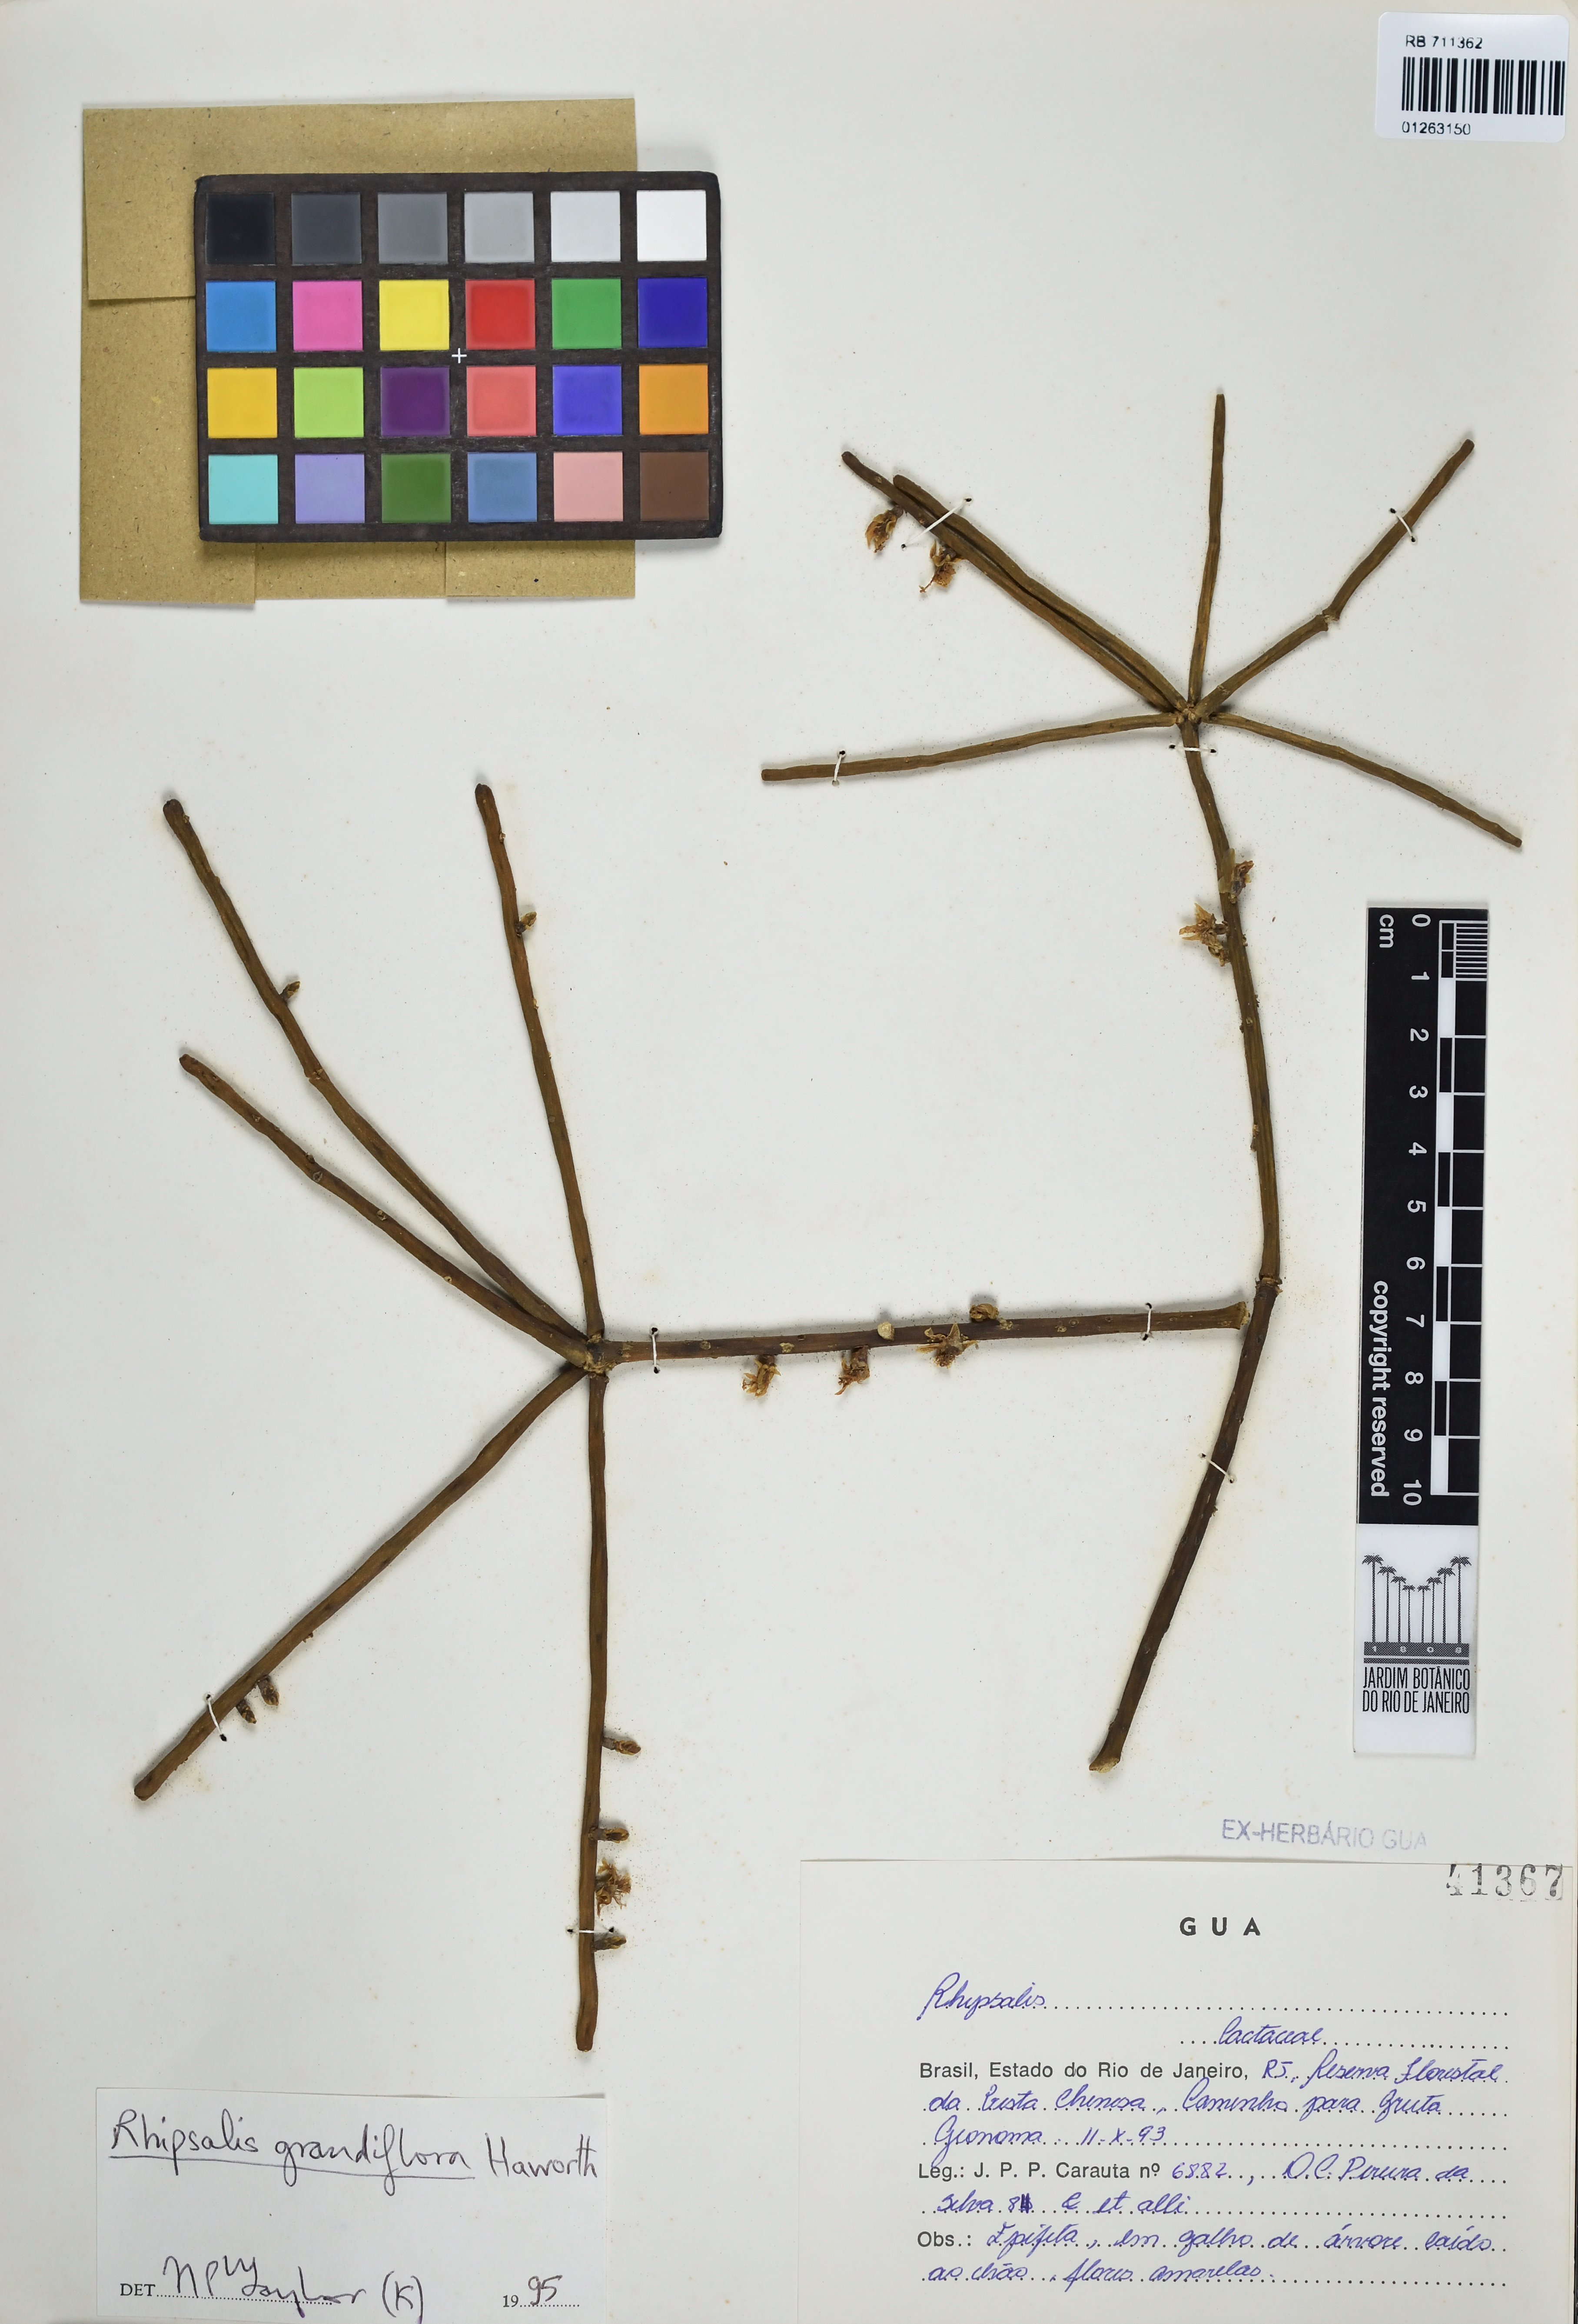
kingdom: Plantae
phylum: Tracheophyta
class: Magnoliopsida
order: Caryophyllales
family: Cactaceae
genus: Rhipsalis
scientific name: Rhipsalis grandiflora
